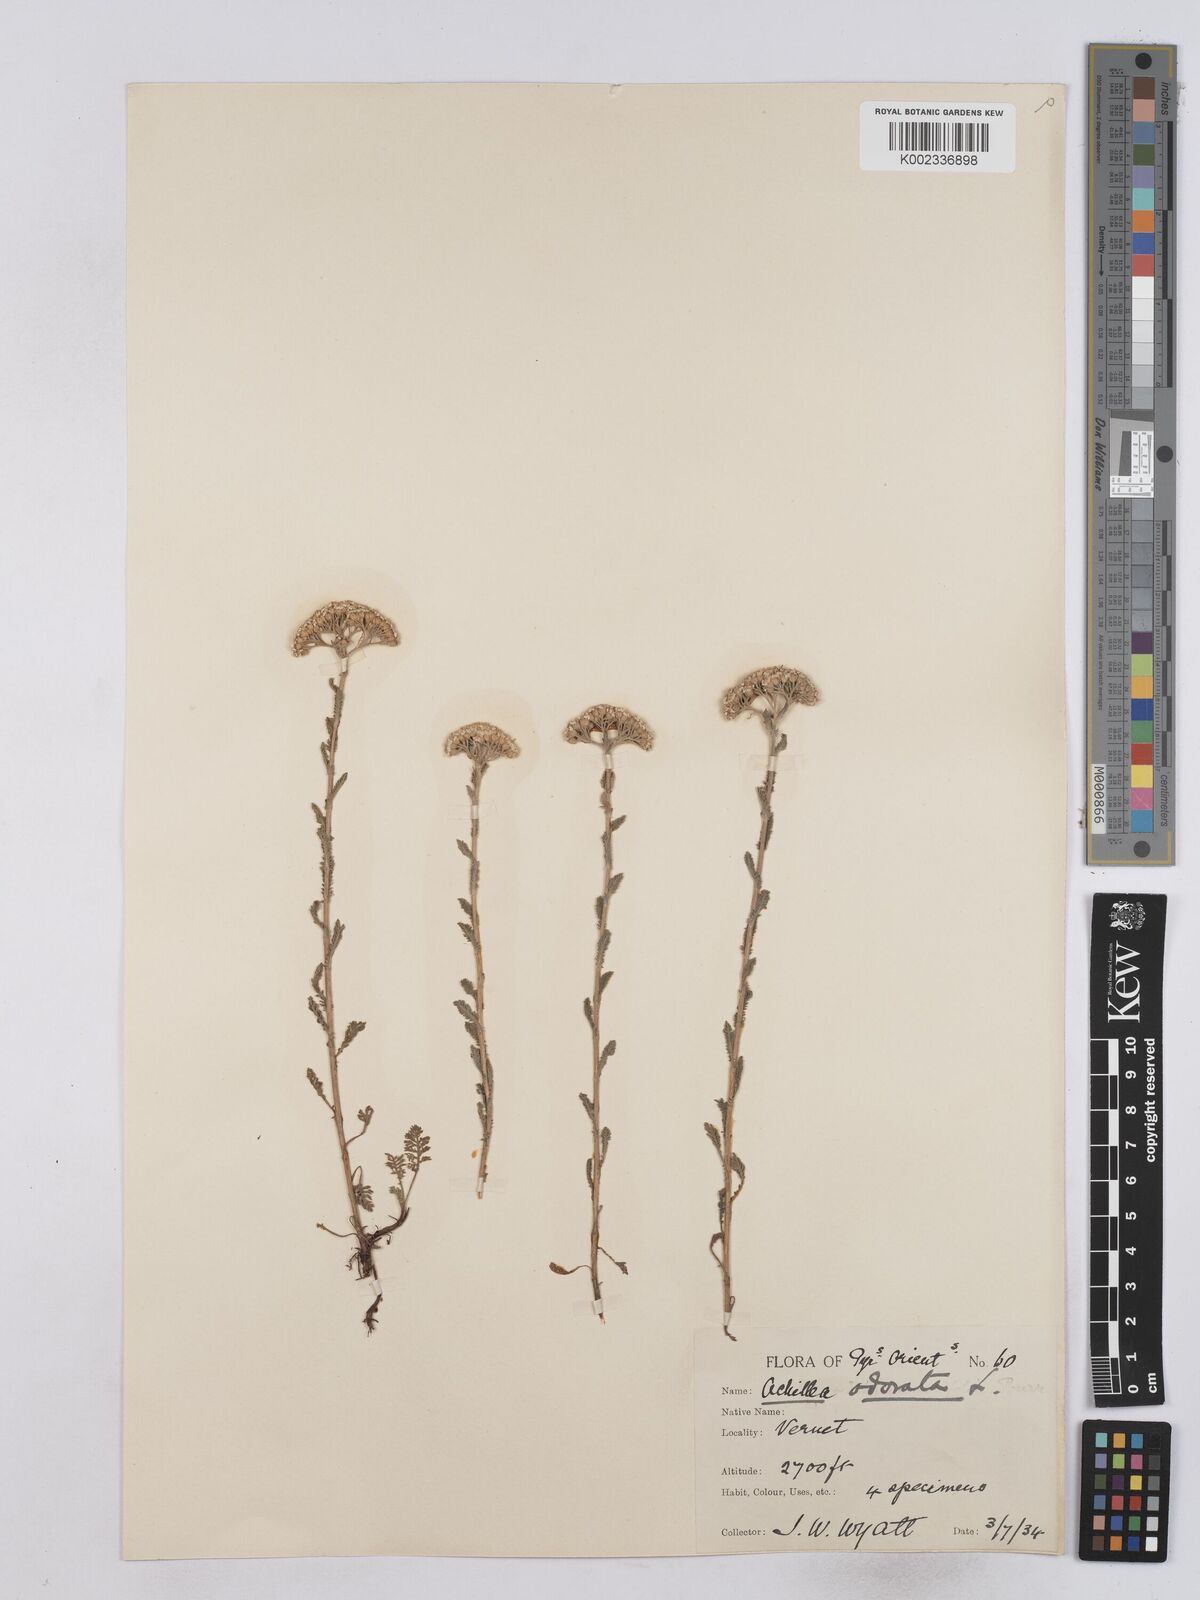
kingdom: Plantae
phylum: Tracheophyta
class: Magnoliopsida
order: Asterales
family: Asteraceae
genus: Achillea
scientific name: Achillea odorata
